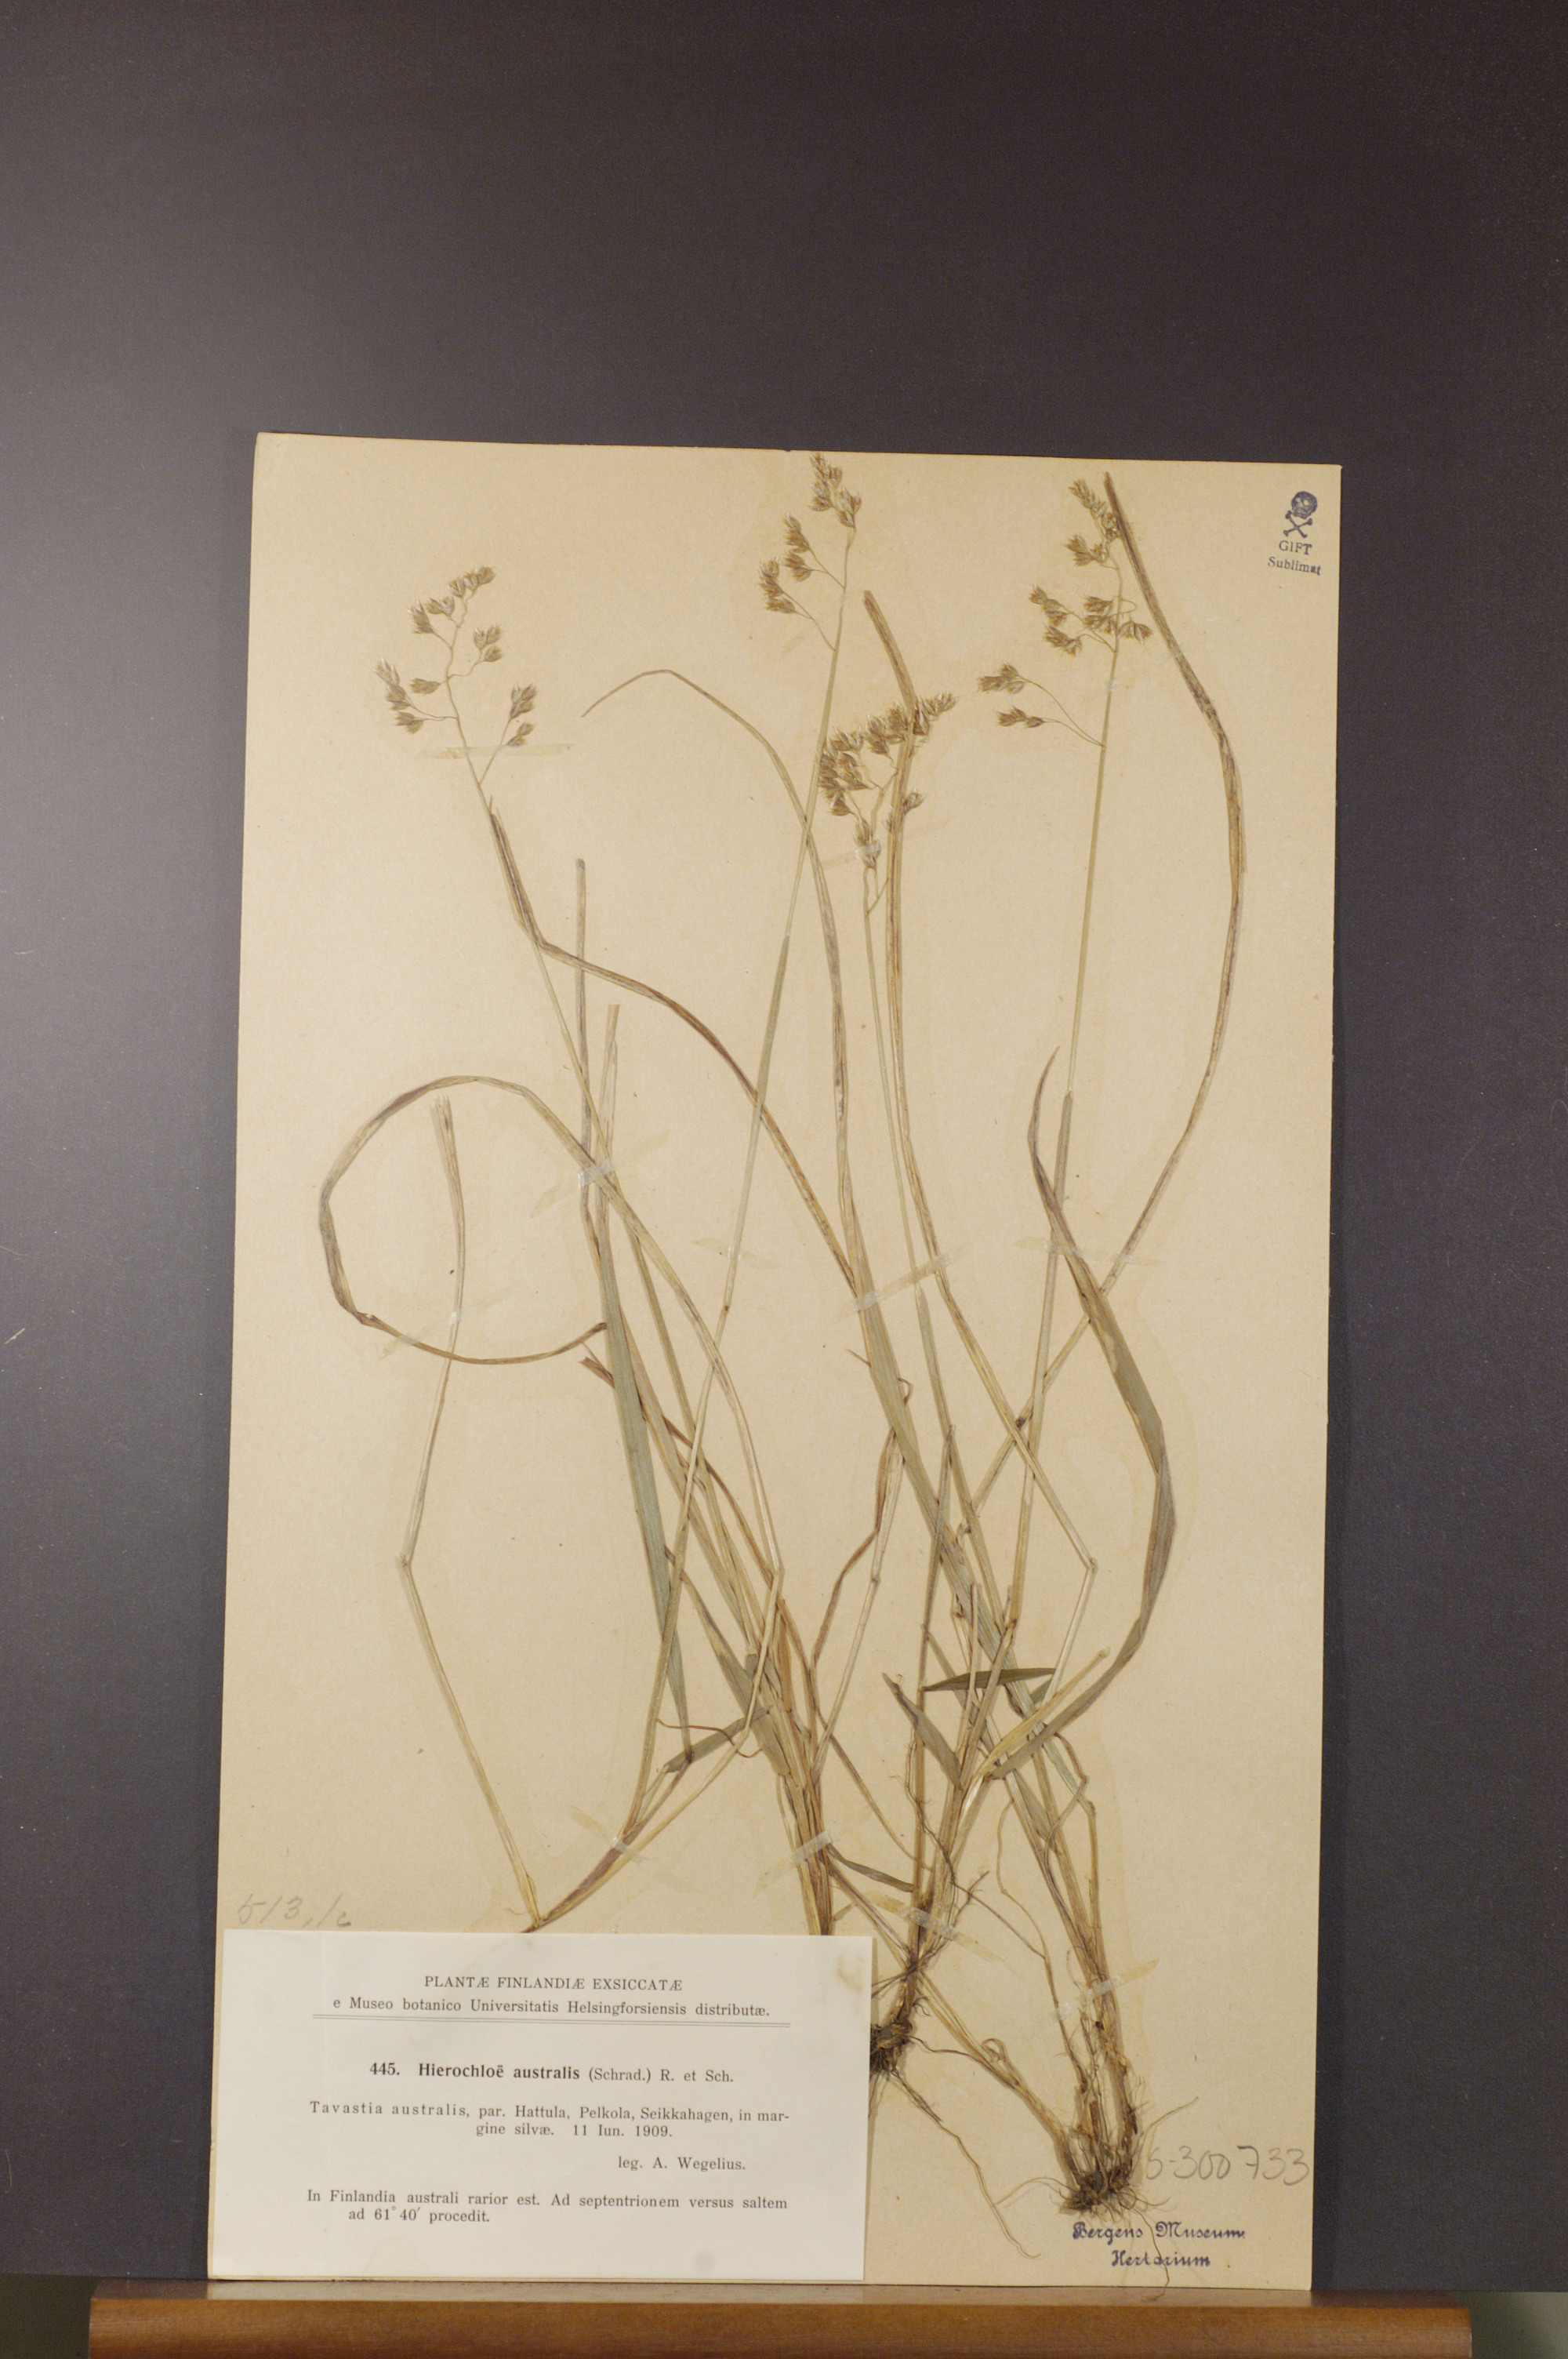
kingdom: Plantae
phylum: Tracheophyta
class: Liliopsida
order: Poales
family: Poaceae
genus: Anthoxanthum
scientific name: Anthoxanthum australe
